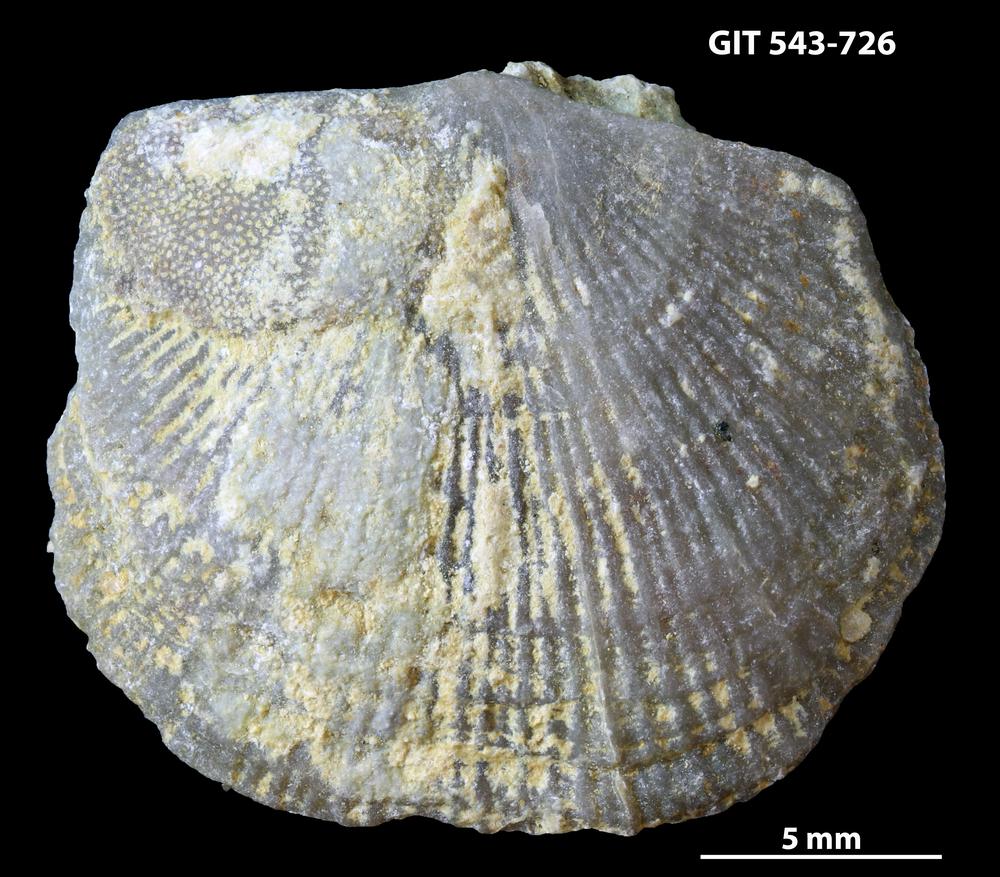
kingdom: Animalia
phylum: Brachiopoda
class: Rhynchonellata
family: Clitambonitidae
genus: Vellamo
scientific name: Vellamo oandoensis
